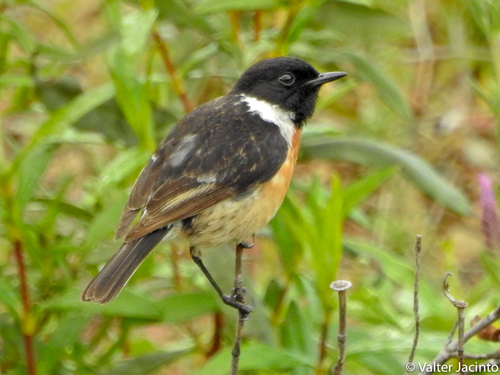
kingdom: Animalia
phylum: Chordata
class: Aves
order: Passeriformes
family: Muscicapidae
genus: Saxicola
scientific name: Saxicola rubicola
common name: European stonechat
